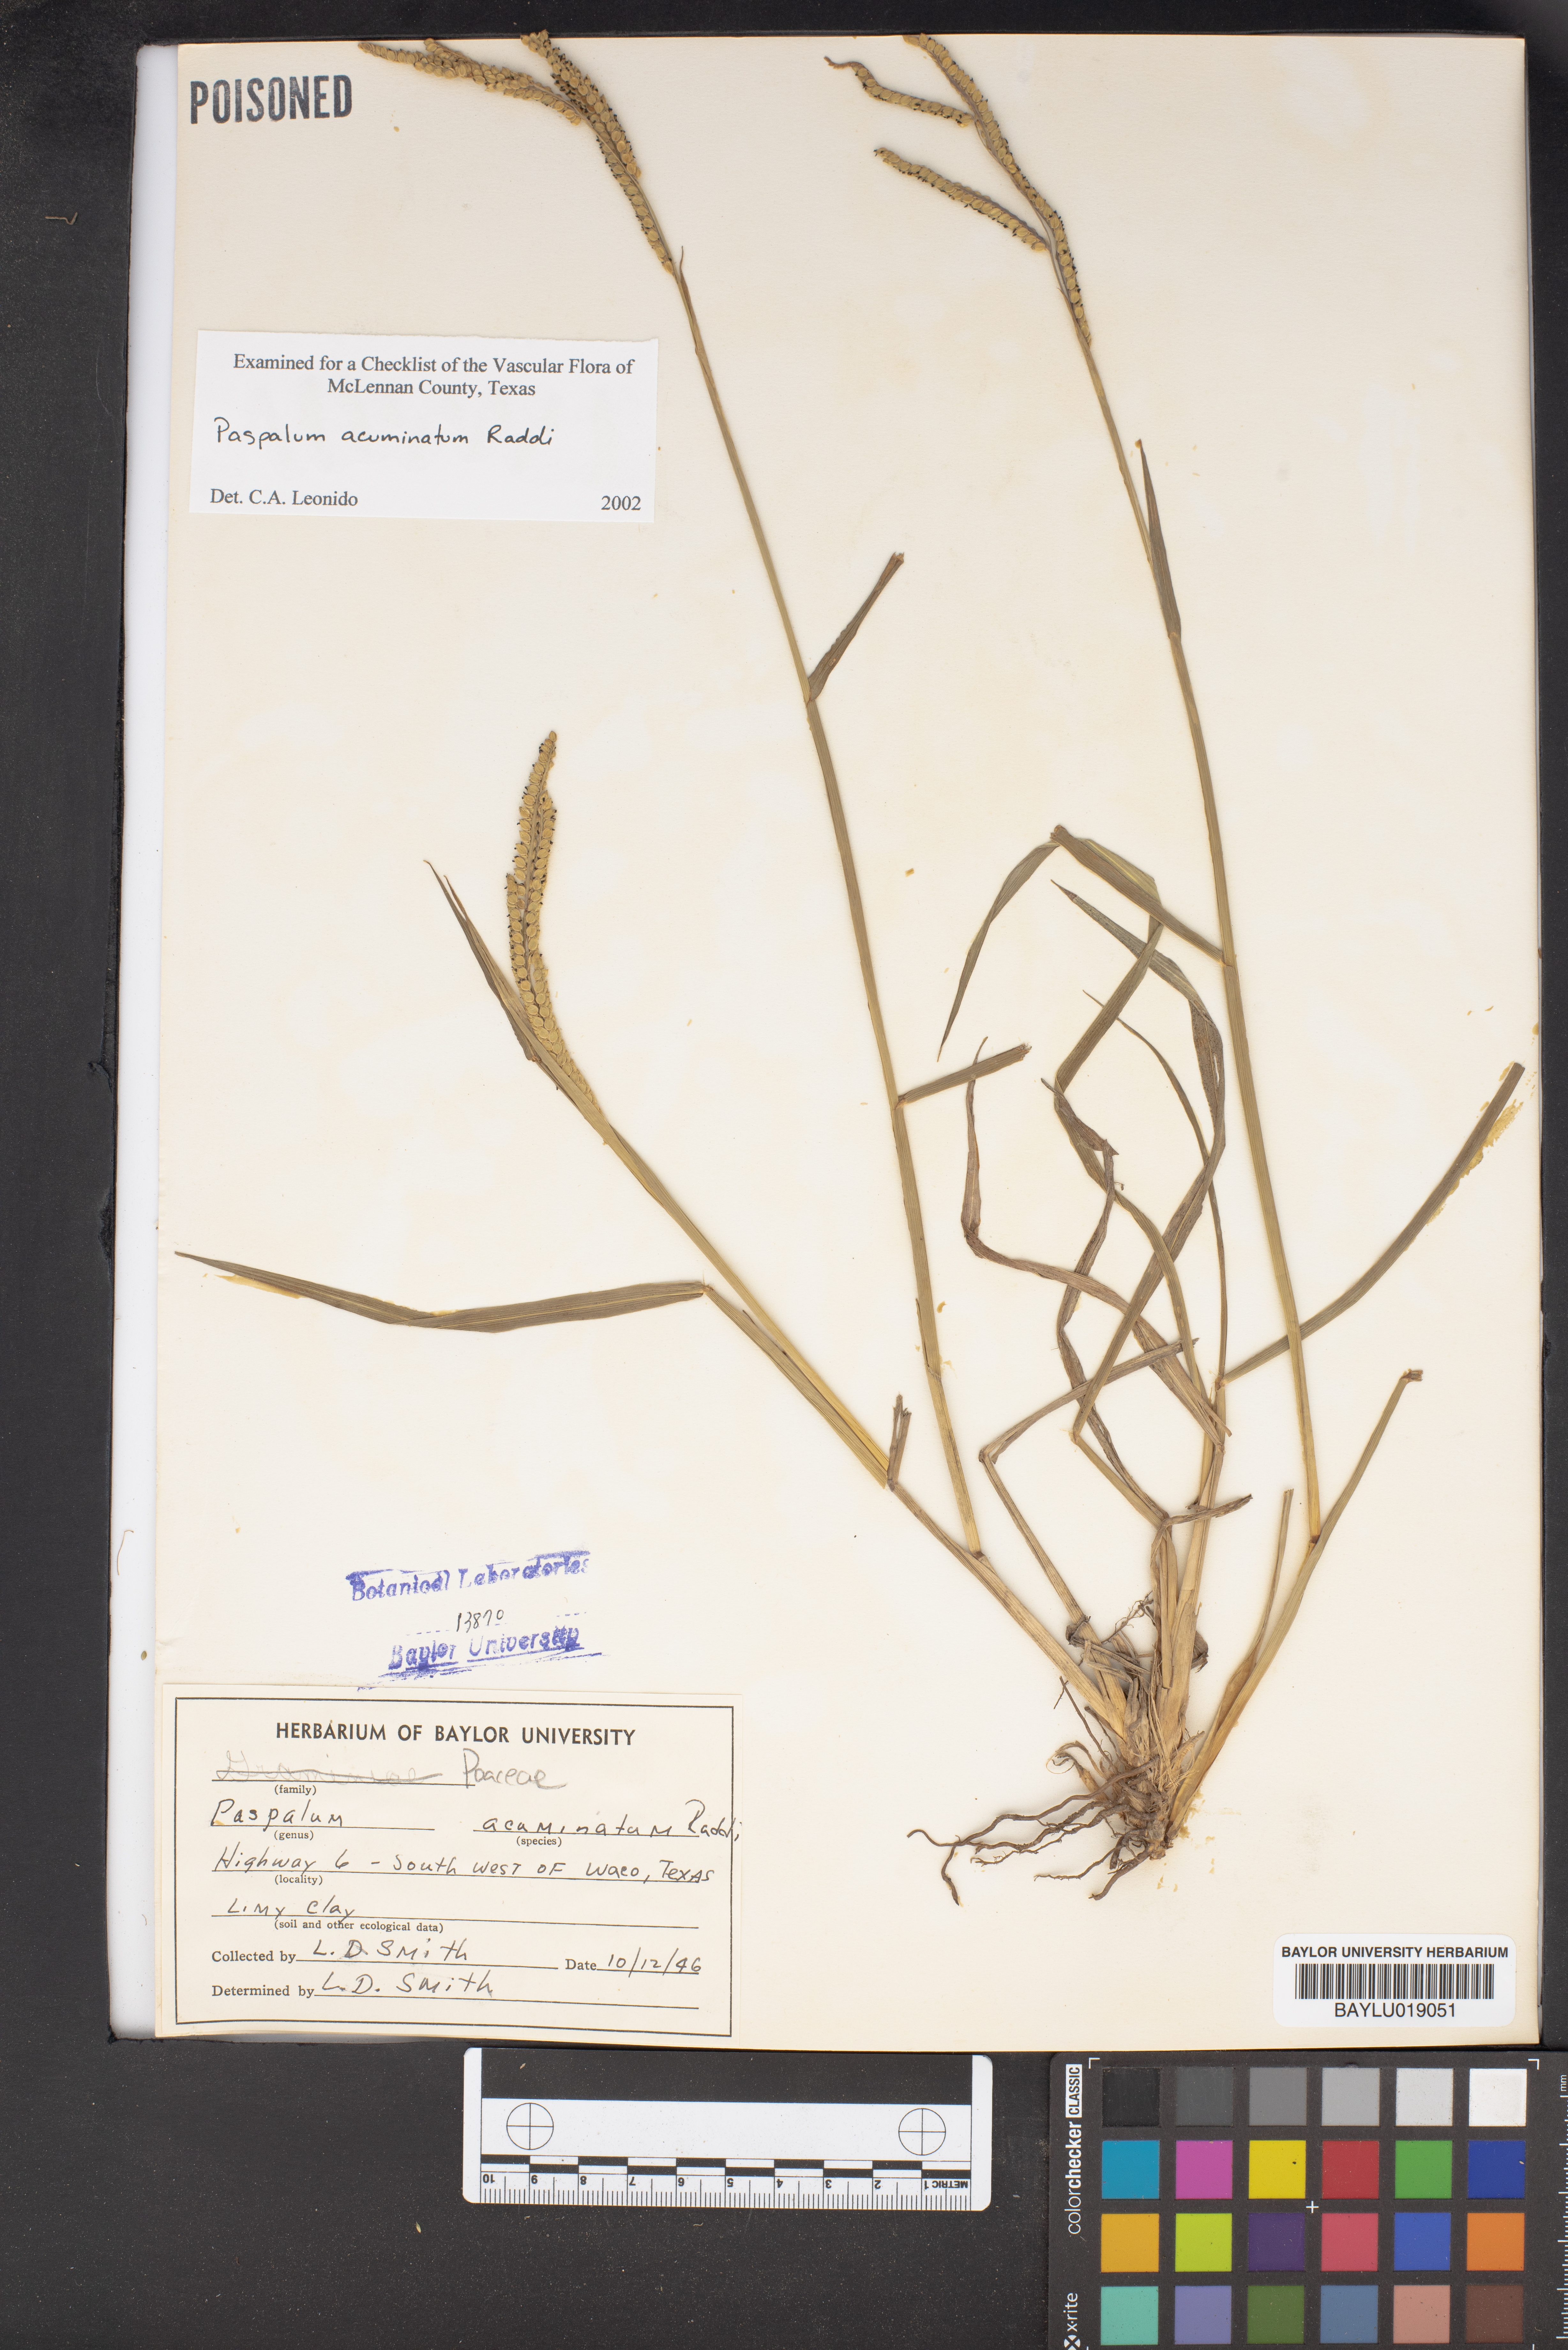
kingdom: Plantae
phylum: Tracheophyta
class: Liliopsida
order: Poales
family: Poaceae
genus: Paspalum
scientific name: Paspalum acuminatum
